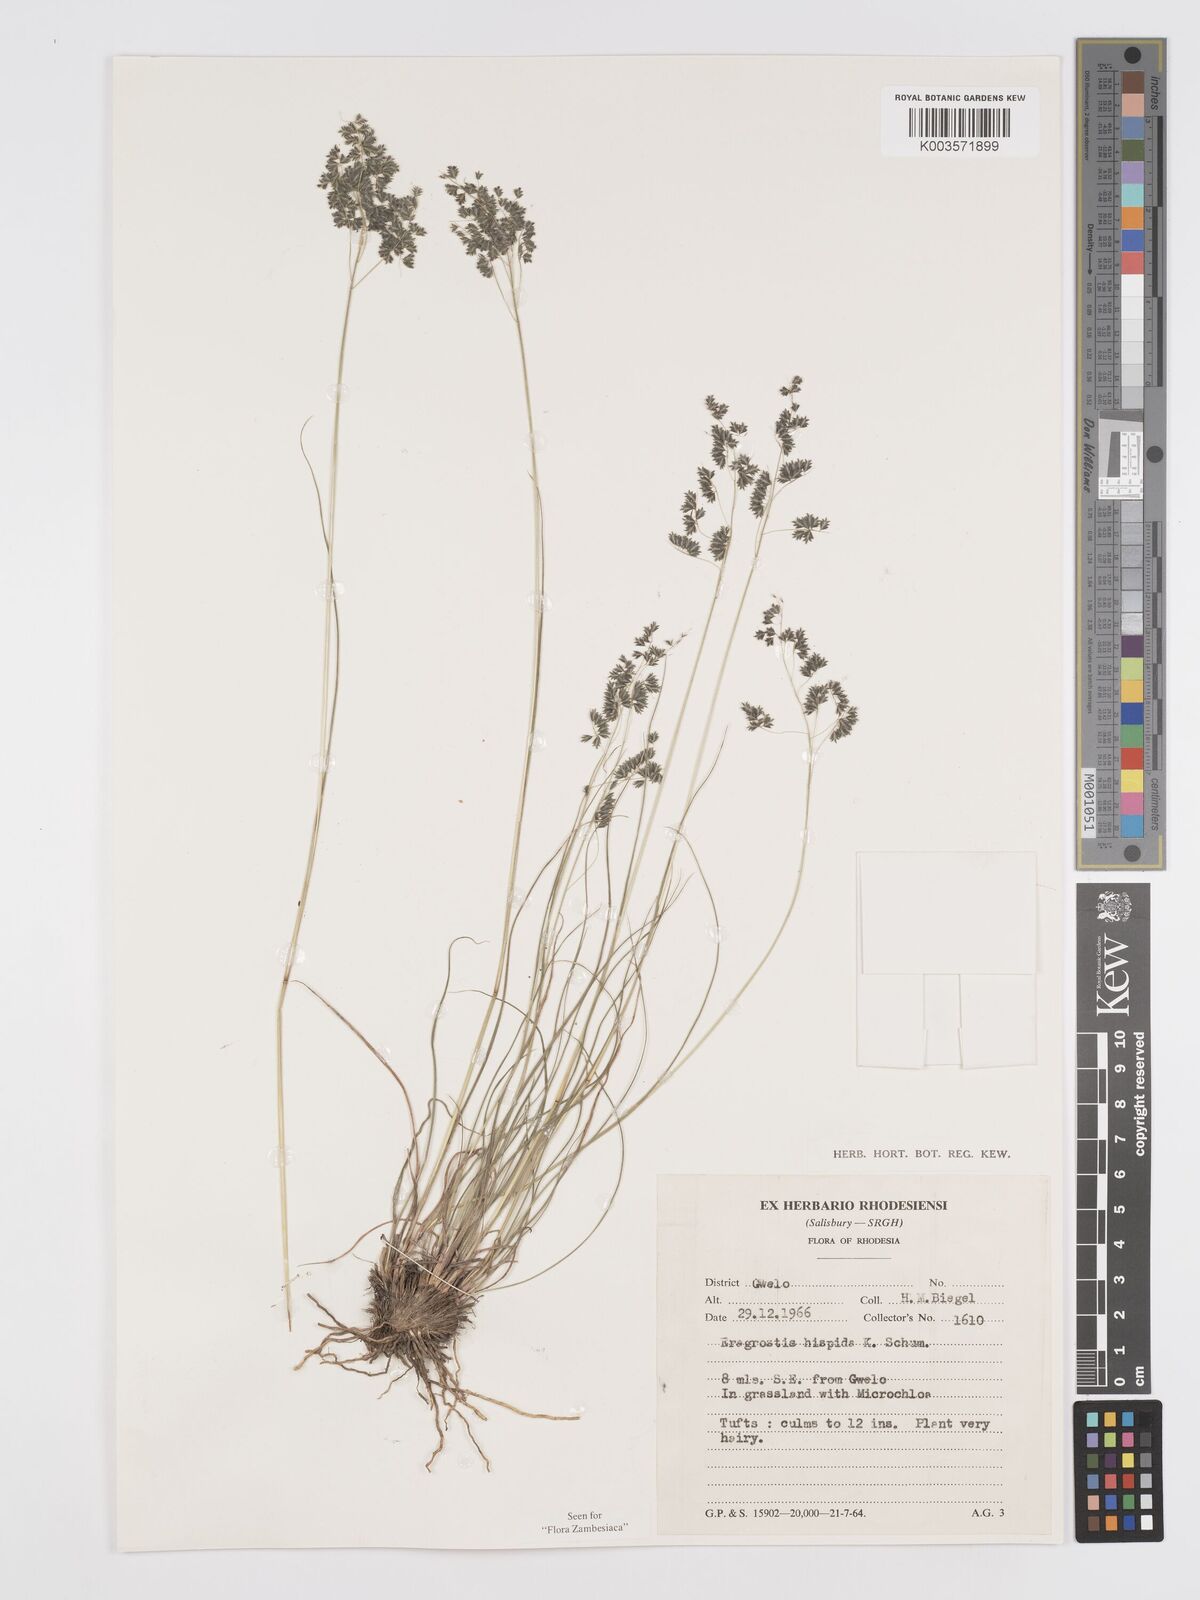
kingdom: Plantae
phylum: Tracheophyta
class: Liliopsida
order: Poales
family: Poaceae
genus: Eragrostis
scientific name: Eragrostis hispida
